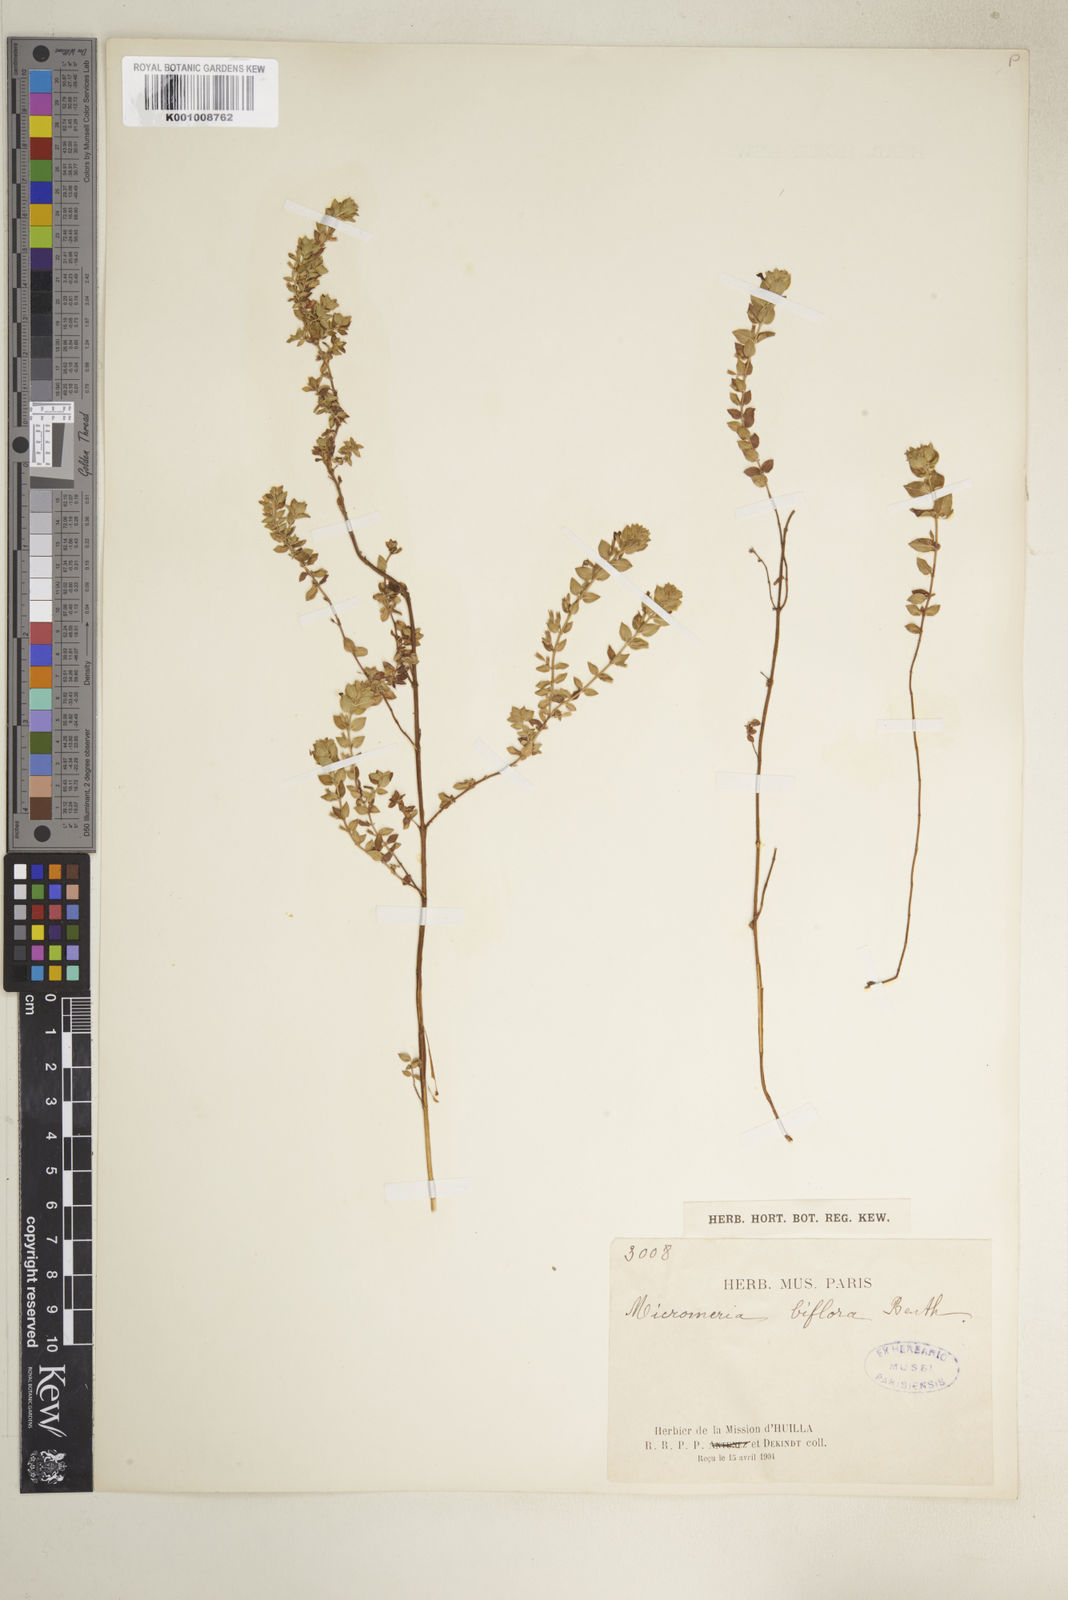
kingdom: Plantae
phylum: Tracheophyta
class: Magnoliopsida
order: Lamiales
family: Lamiaceae
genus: Micromeria
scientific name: Micromeria imbricata
